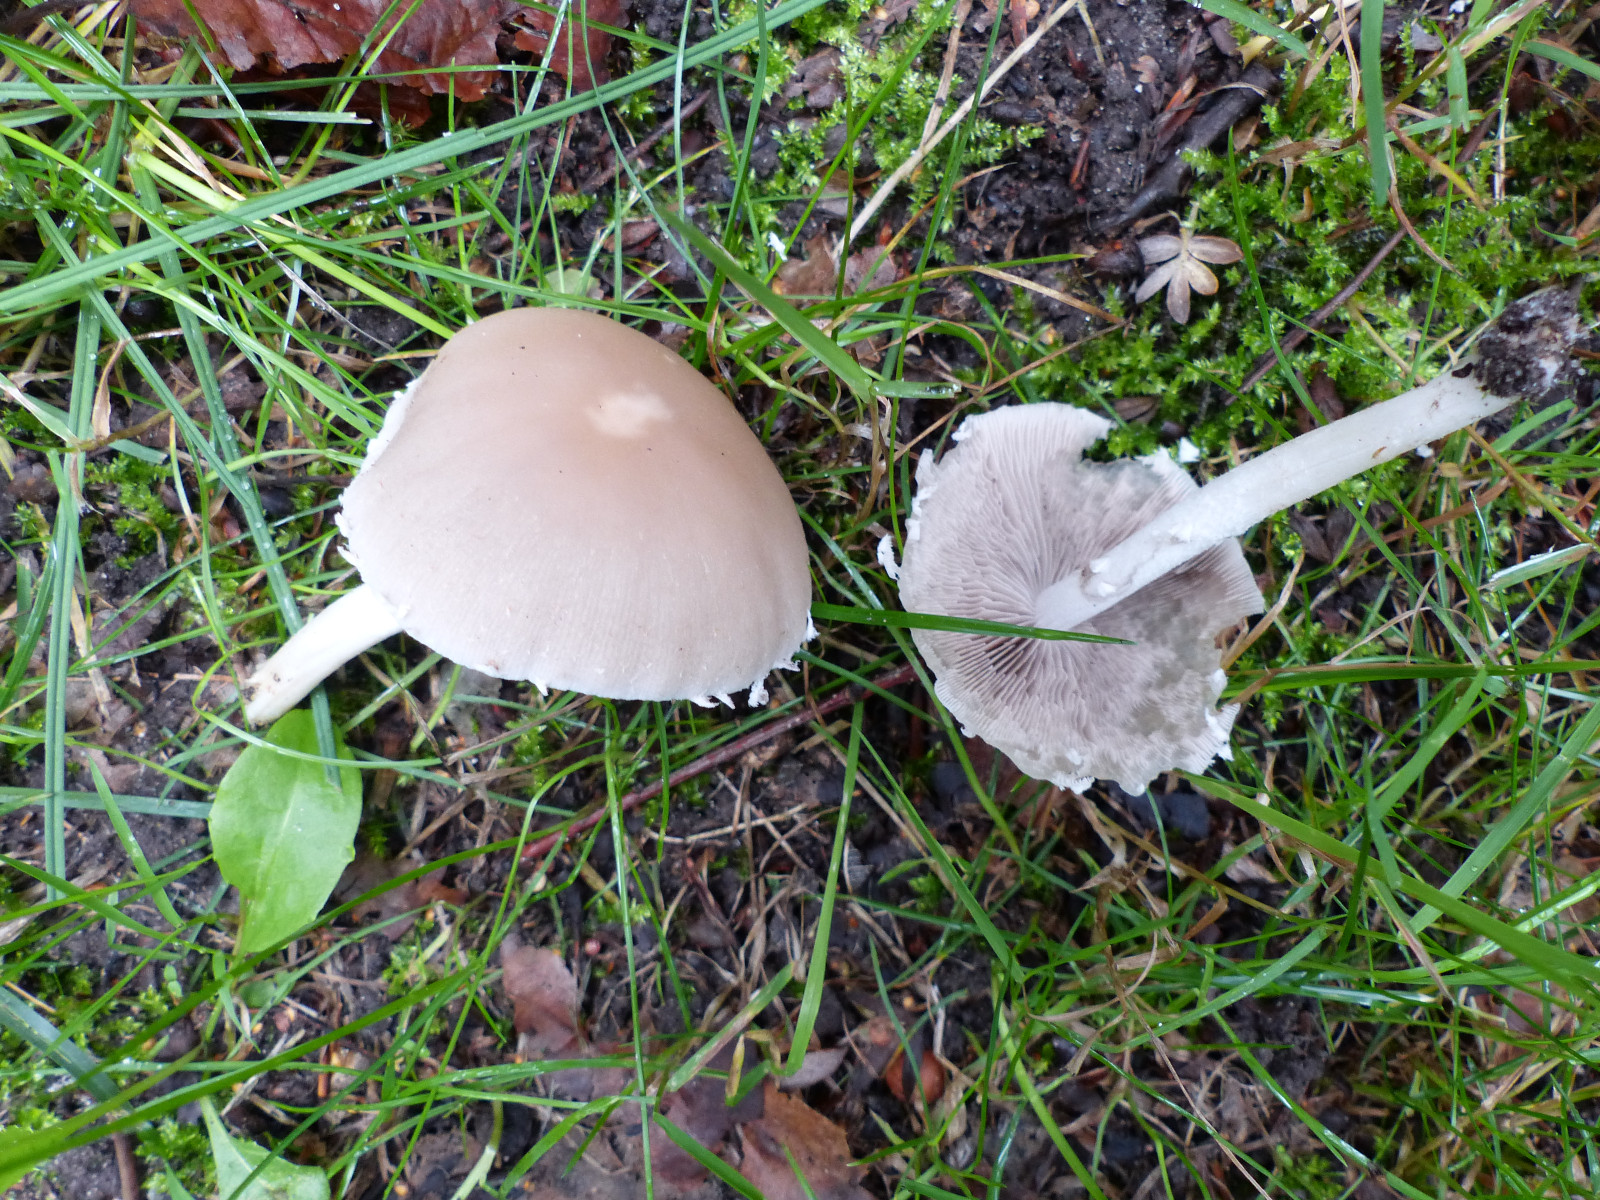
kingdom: Fungi
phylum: Basidiomycota
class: Agaricomycetes
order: Agaricales
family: Psathyrellaceae
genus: Candolleomyces
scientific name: Candolleomyces candolleanus
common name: Candolles mørkhat
